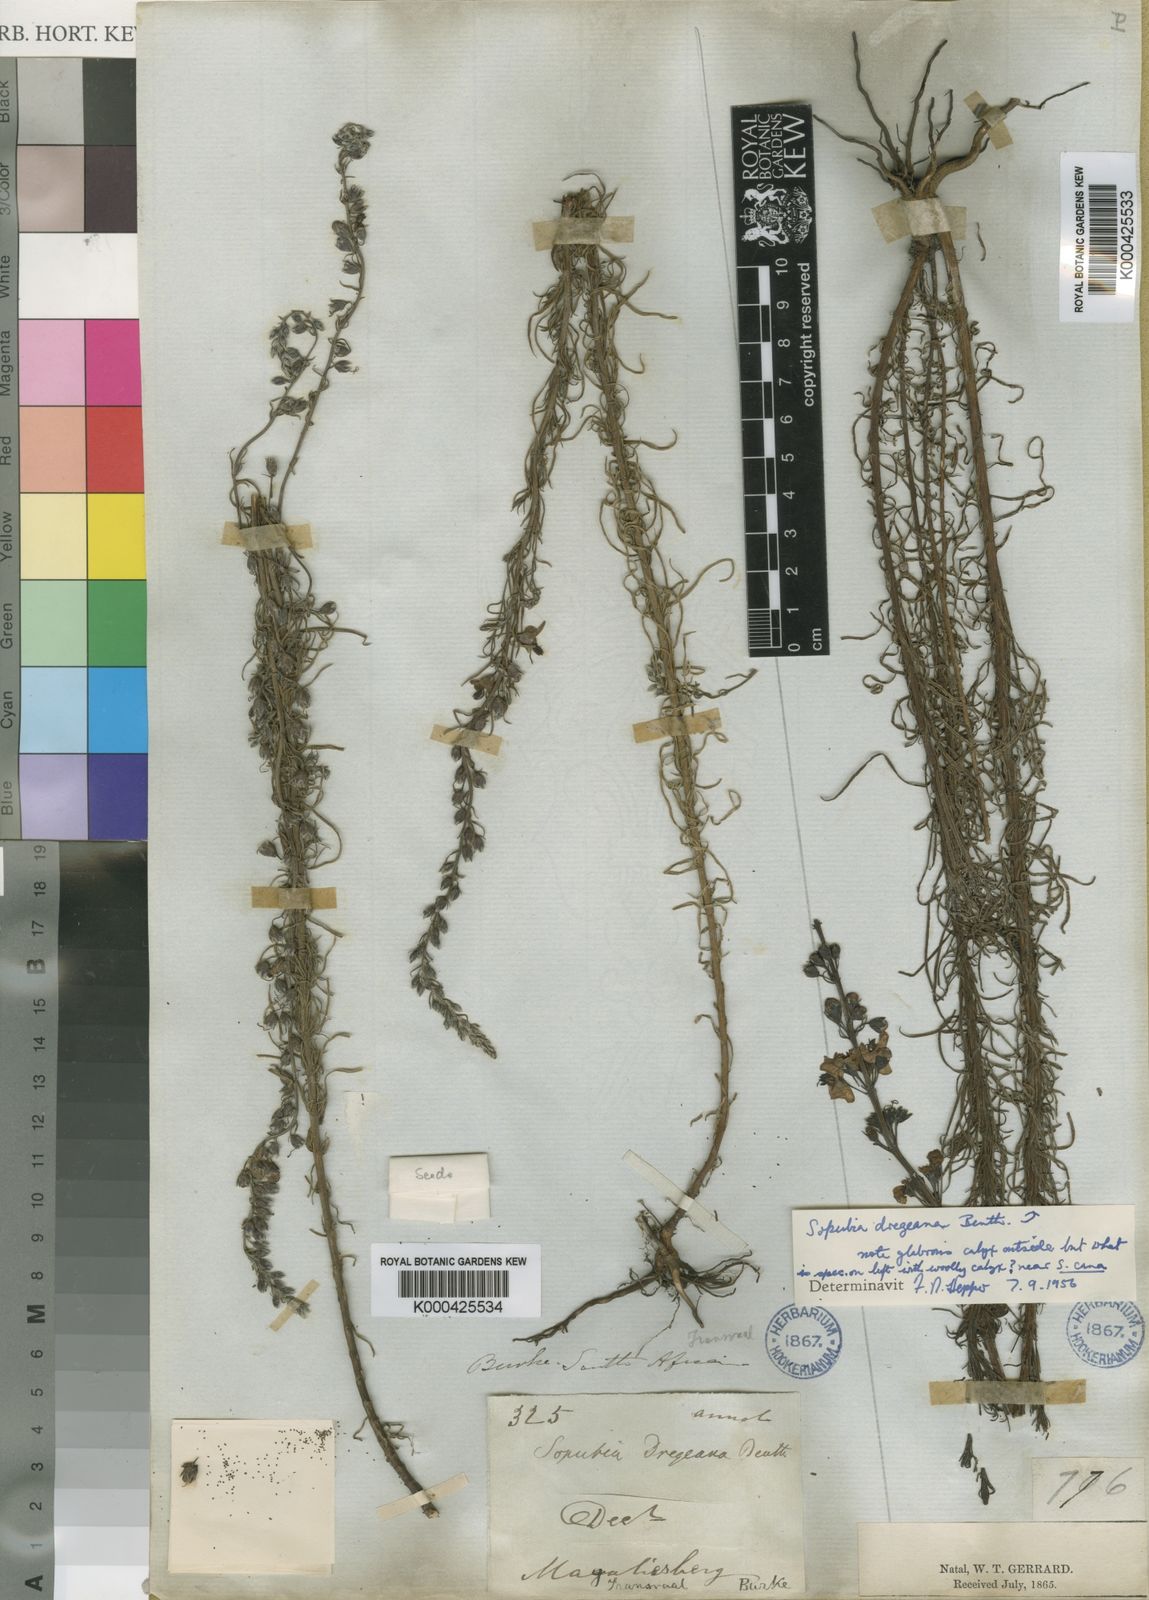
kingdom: Plantae
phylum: Tracheophyta
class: Magnoliopsida
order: Lamiales
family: Orobanchaceae
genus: Sopubia
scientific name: Sopubia simplex
